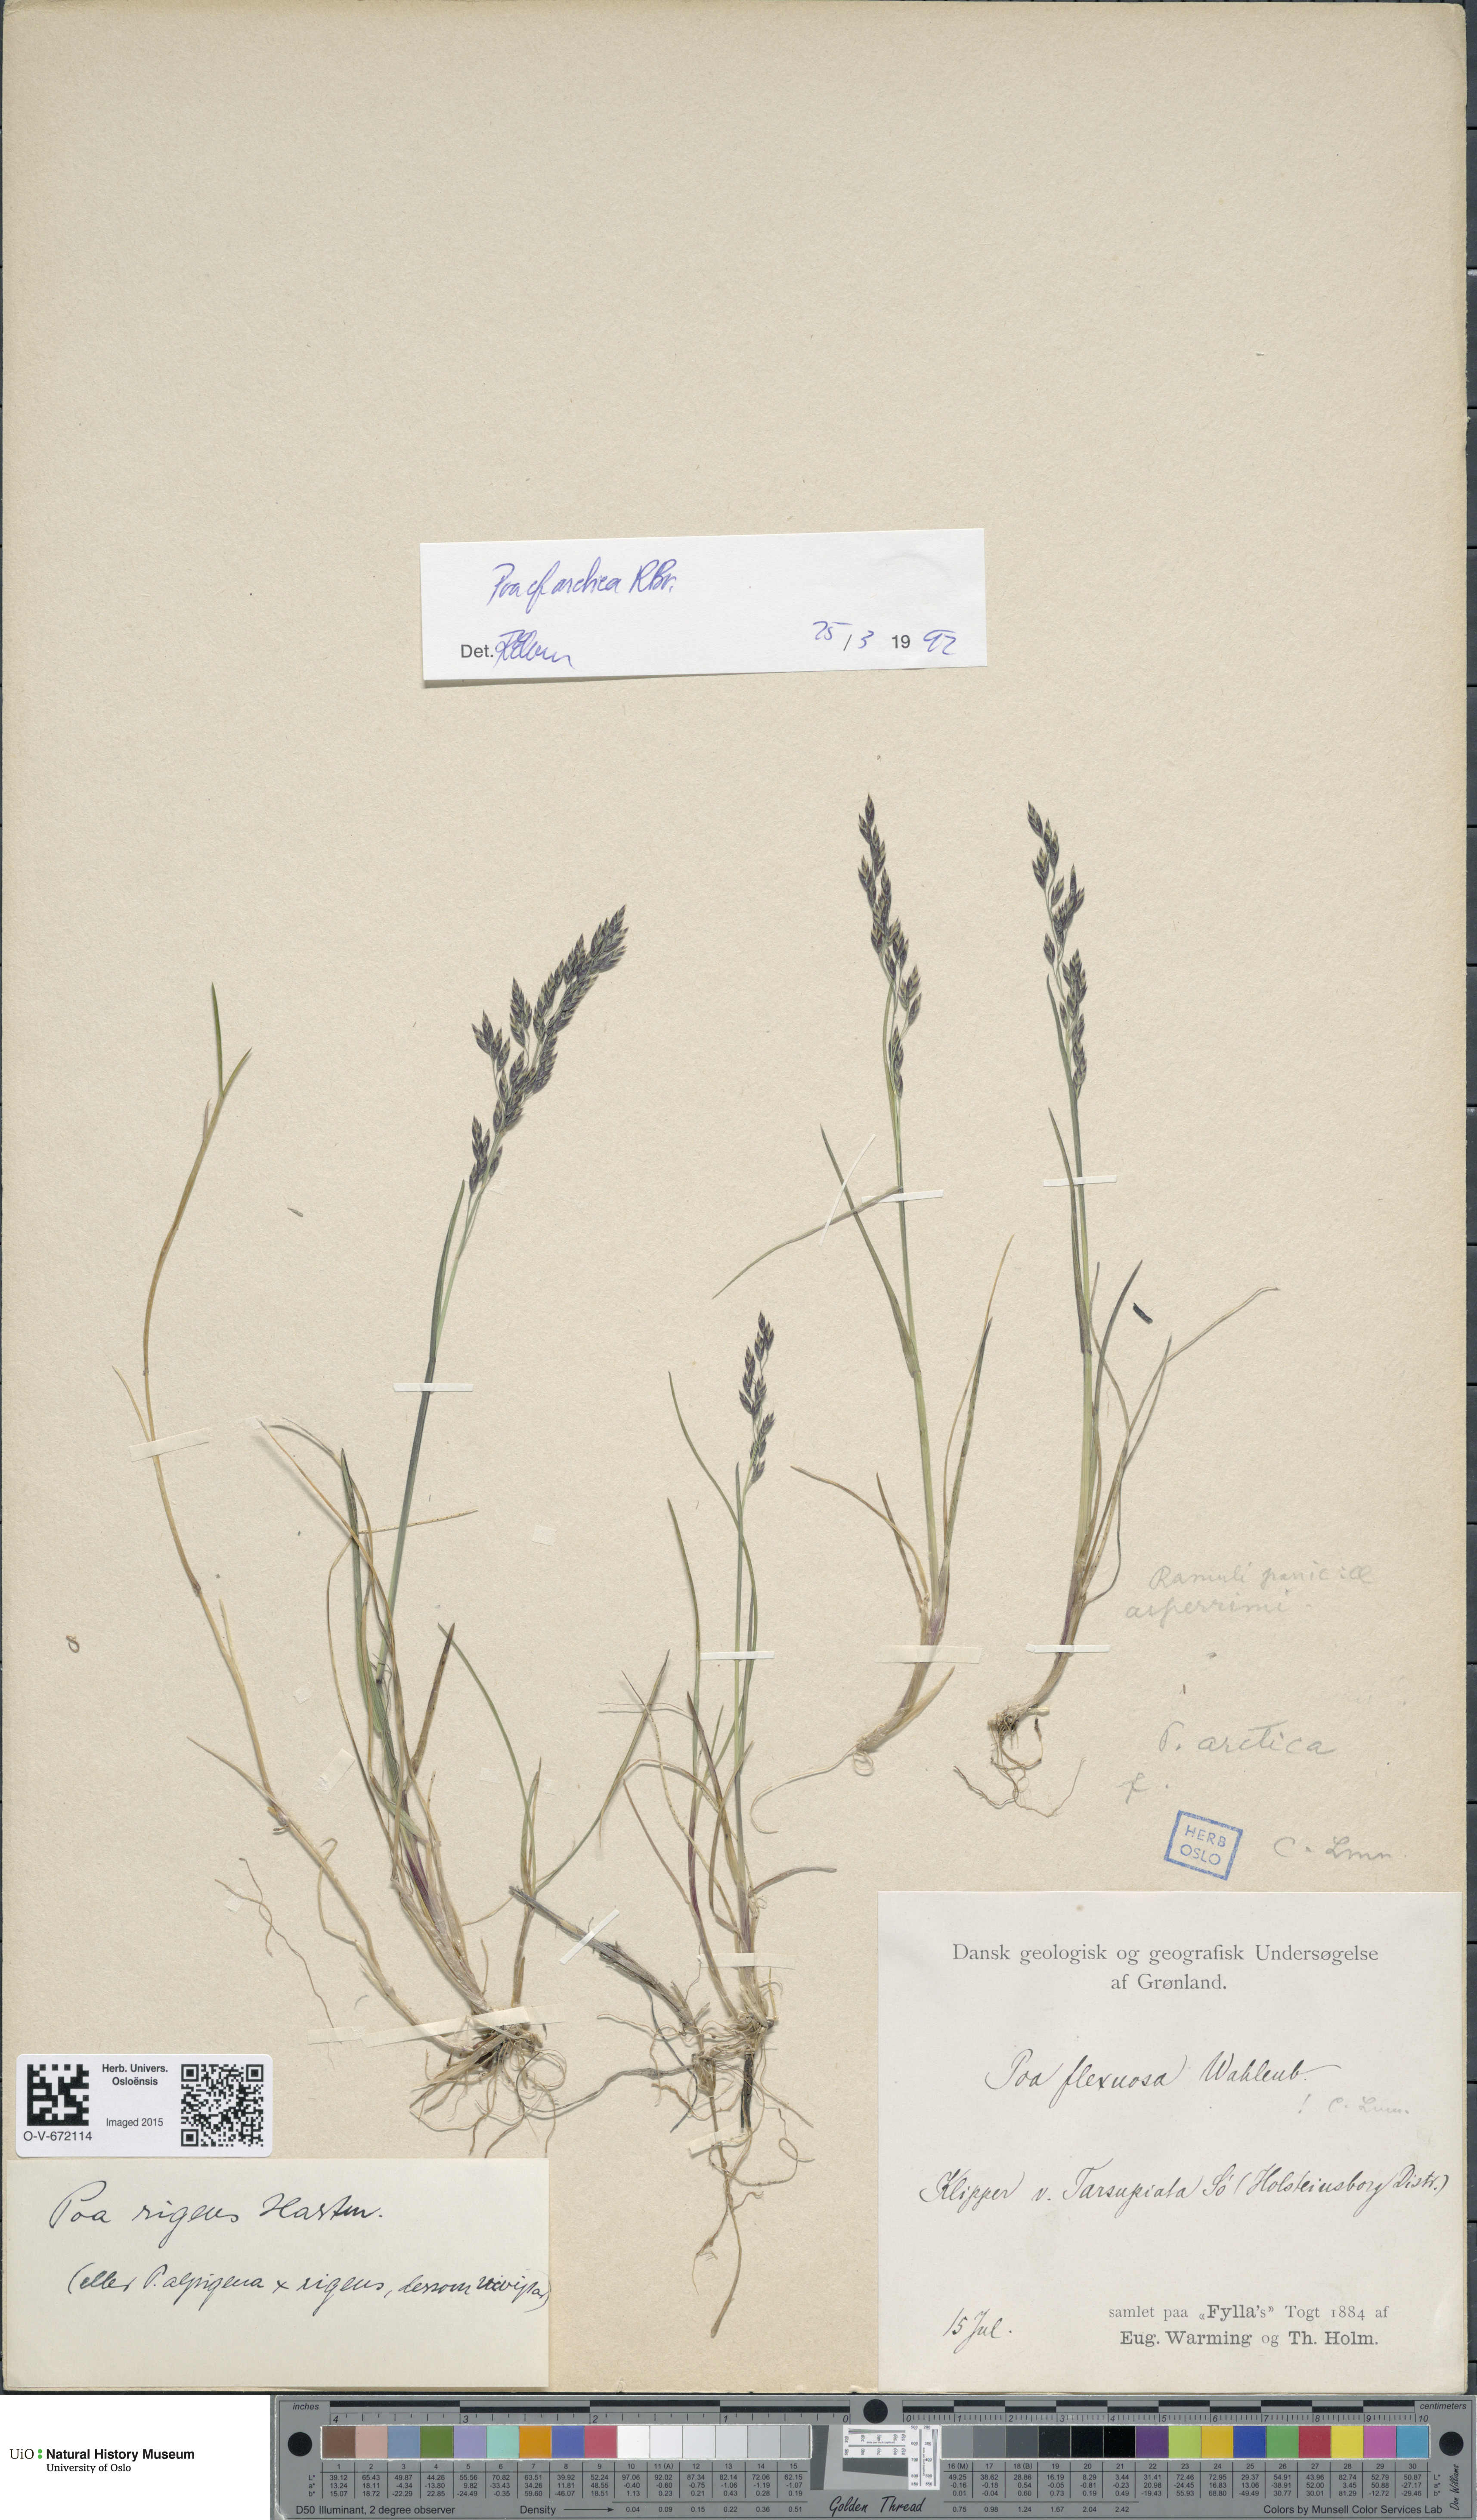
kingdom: Plantae
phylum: Tracheophyta
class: Liliopsida
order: Poales
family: Poaceae
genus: Poa
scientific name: Poa arctica
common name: Arctic bluegrass
